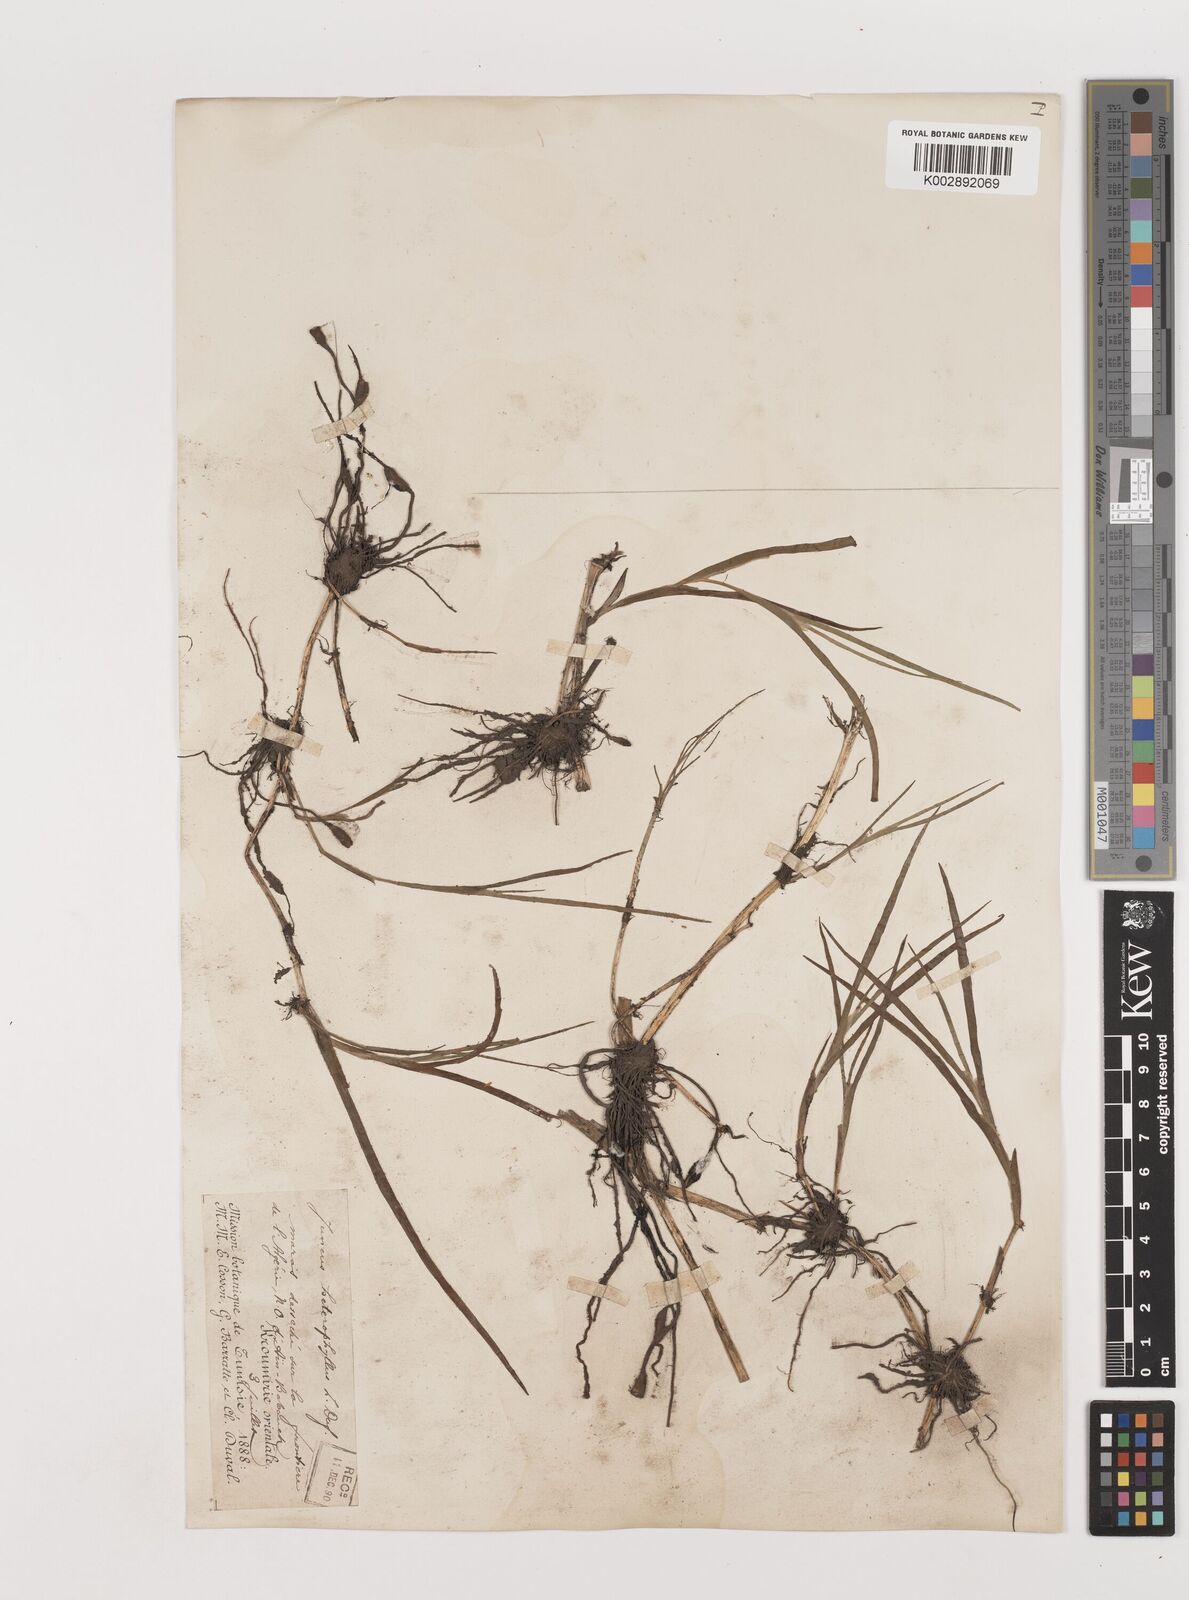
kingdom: Plantae
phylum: Tracheophyta
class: Liliopsida
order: Poales
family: Juncaceae
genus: Juncus
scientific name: Juncus heterophyllus
